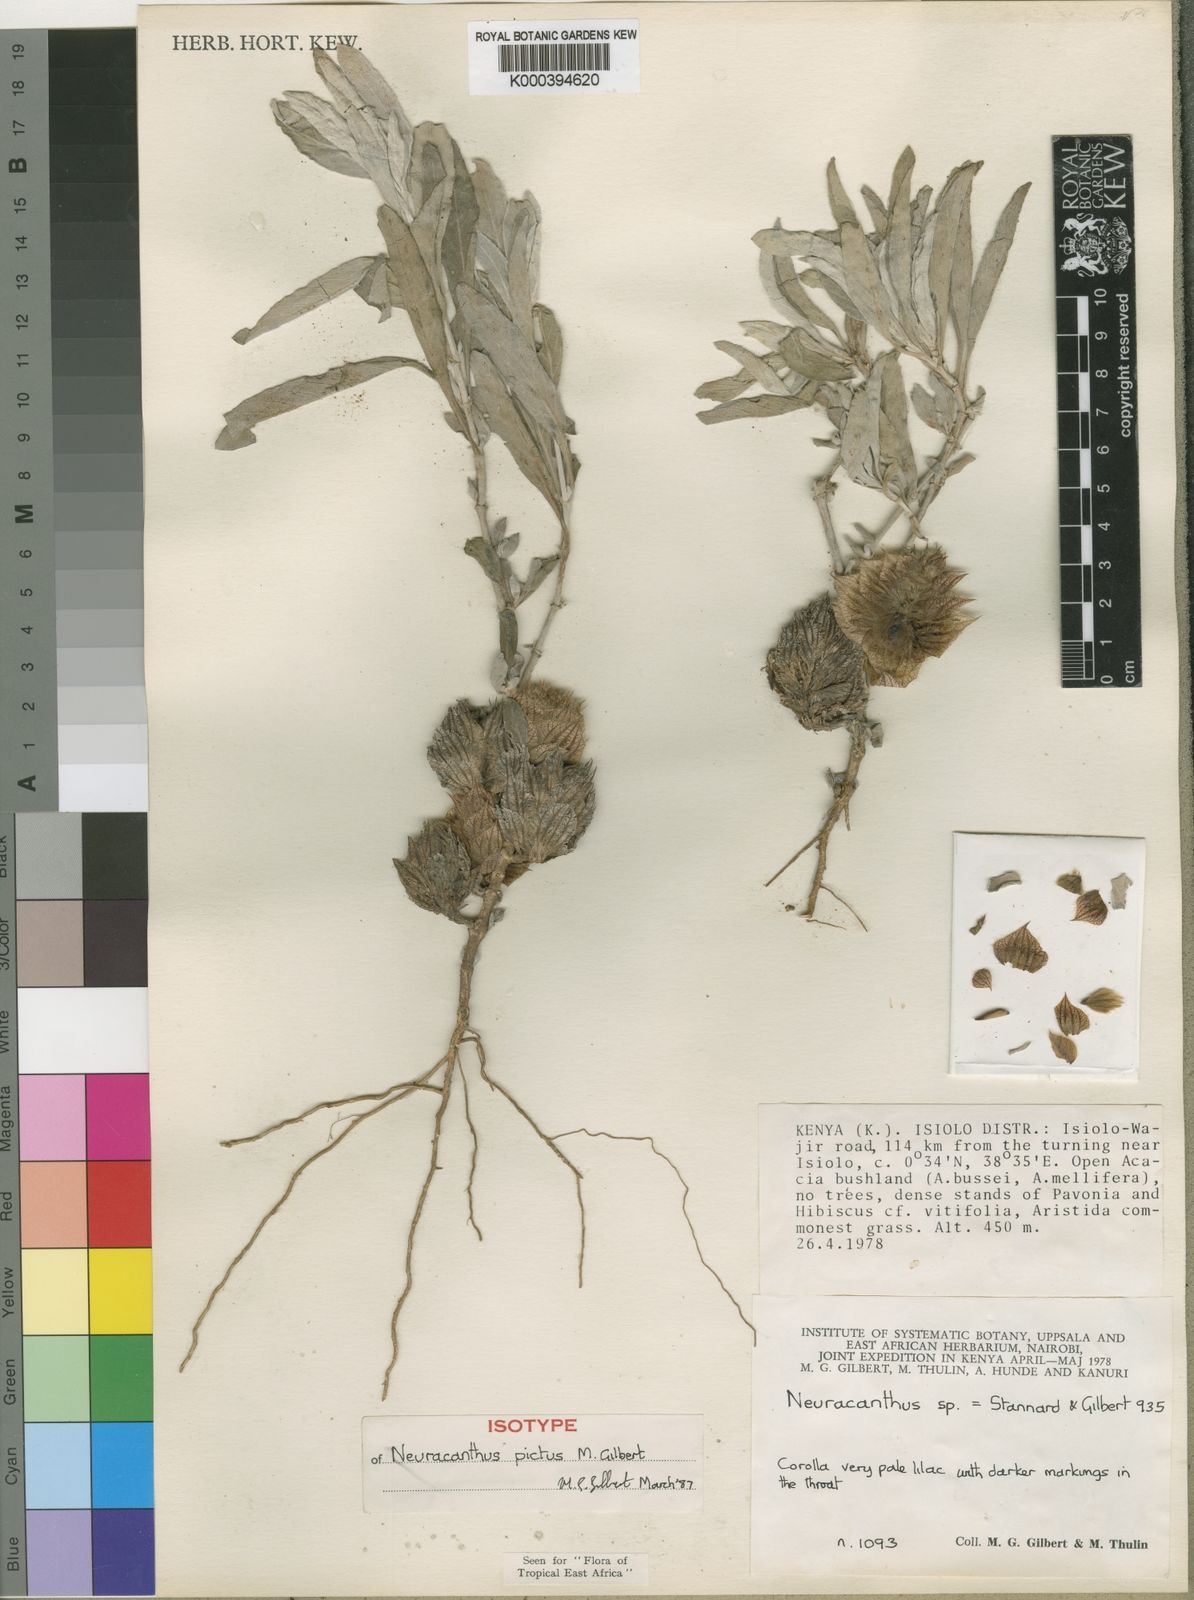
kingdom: Plantae
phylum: Tracheophyta
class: Magnoliopsida
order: Lamiales
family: Acanthaceae
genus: Neuracanthus
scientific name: Neuracanthus pictus
